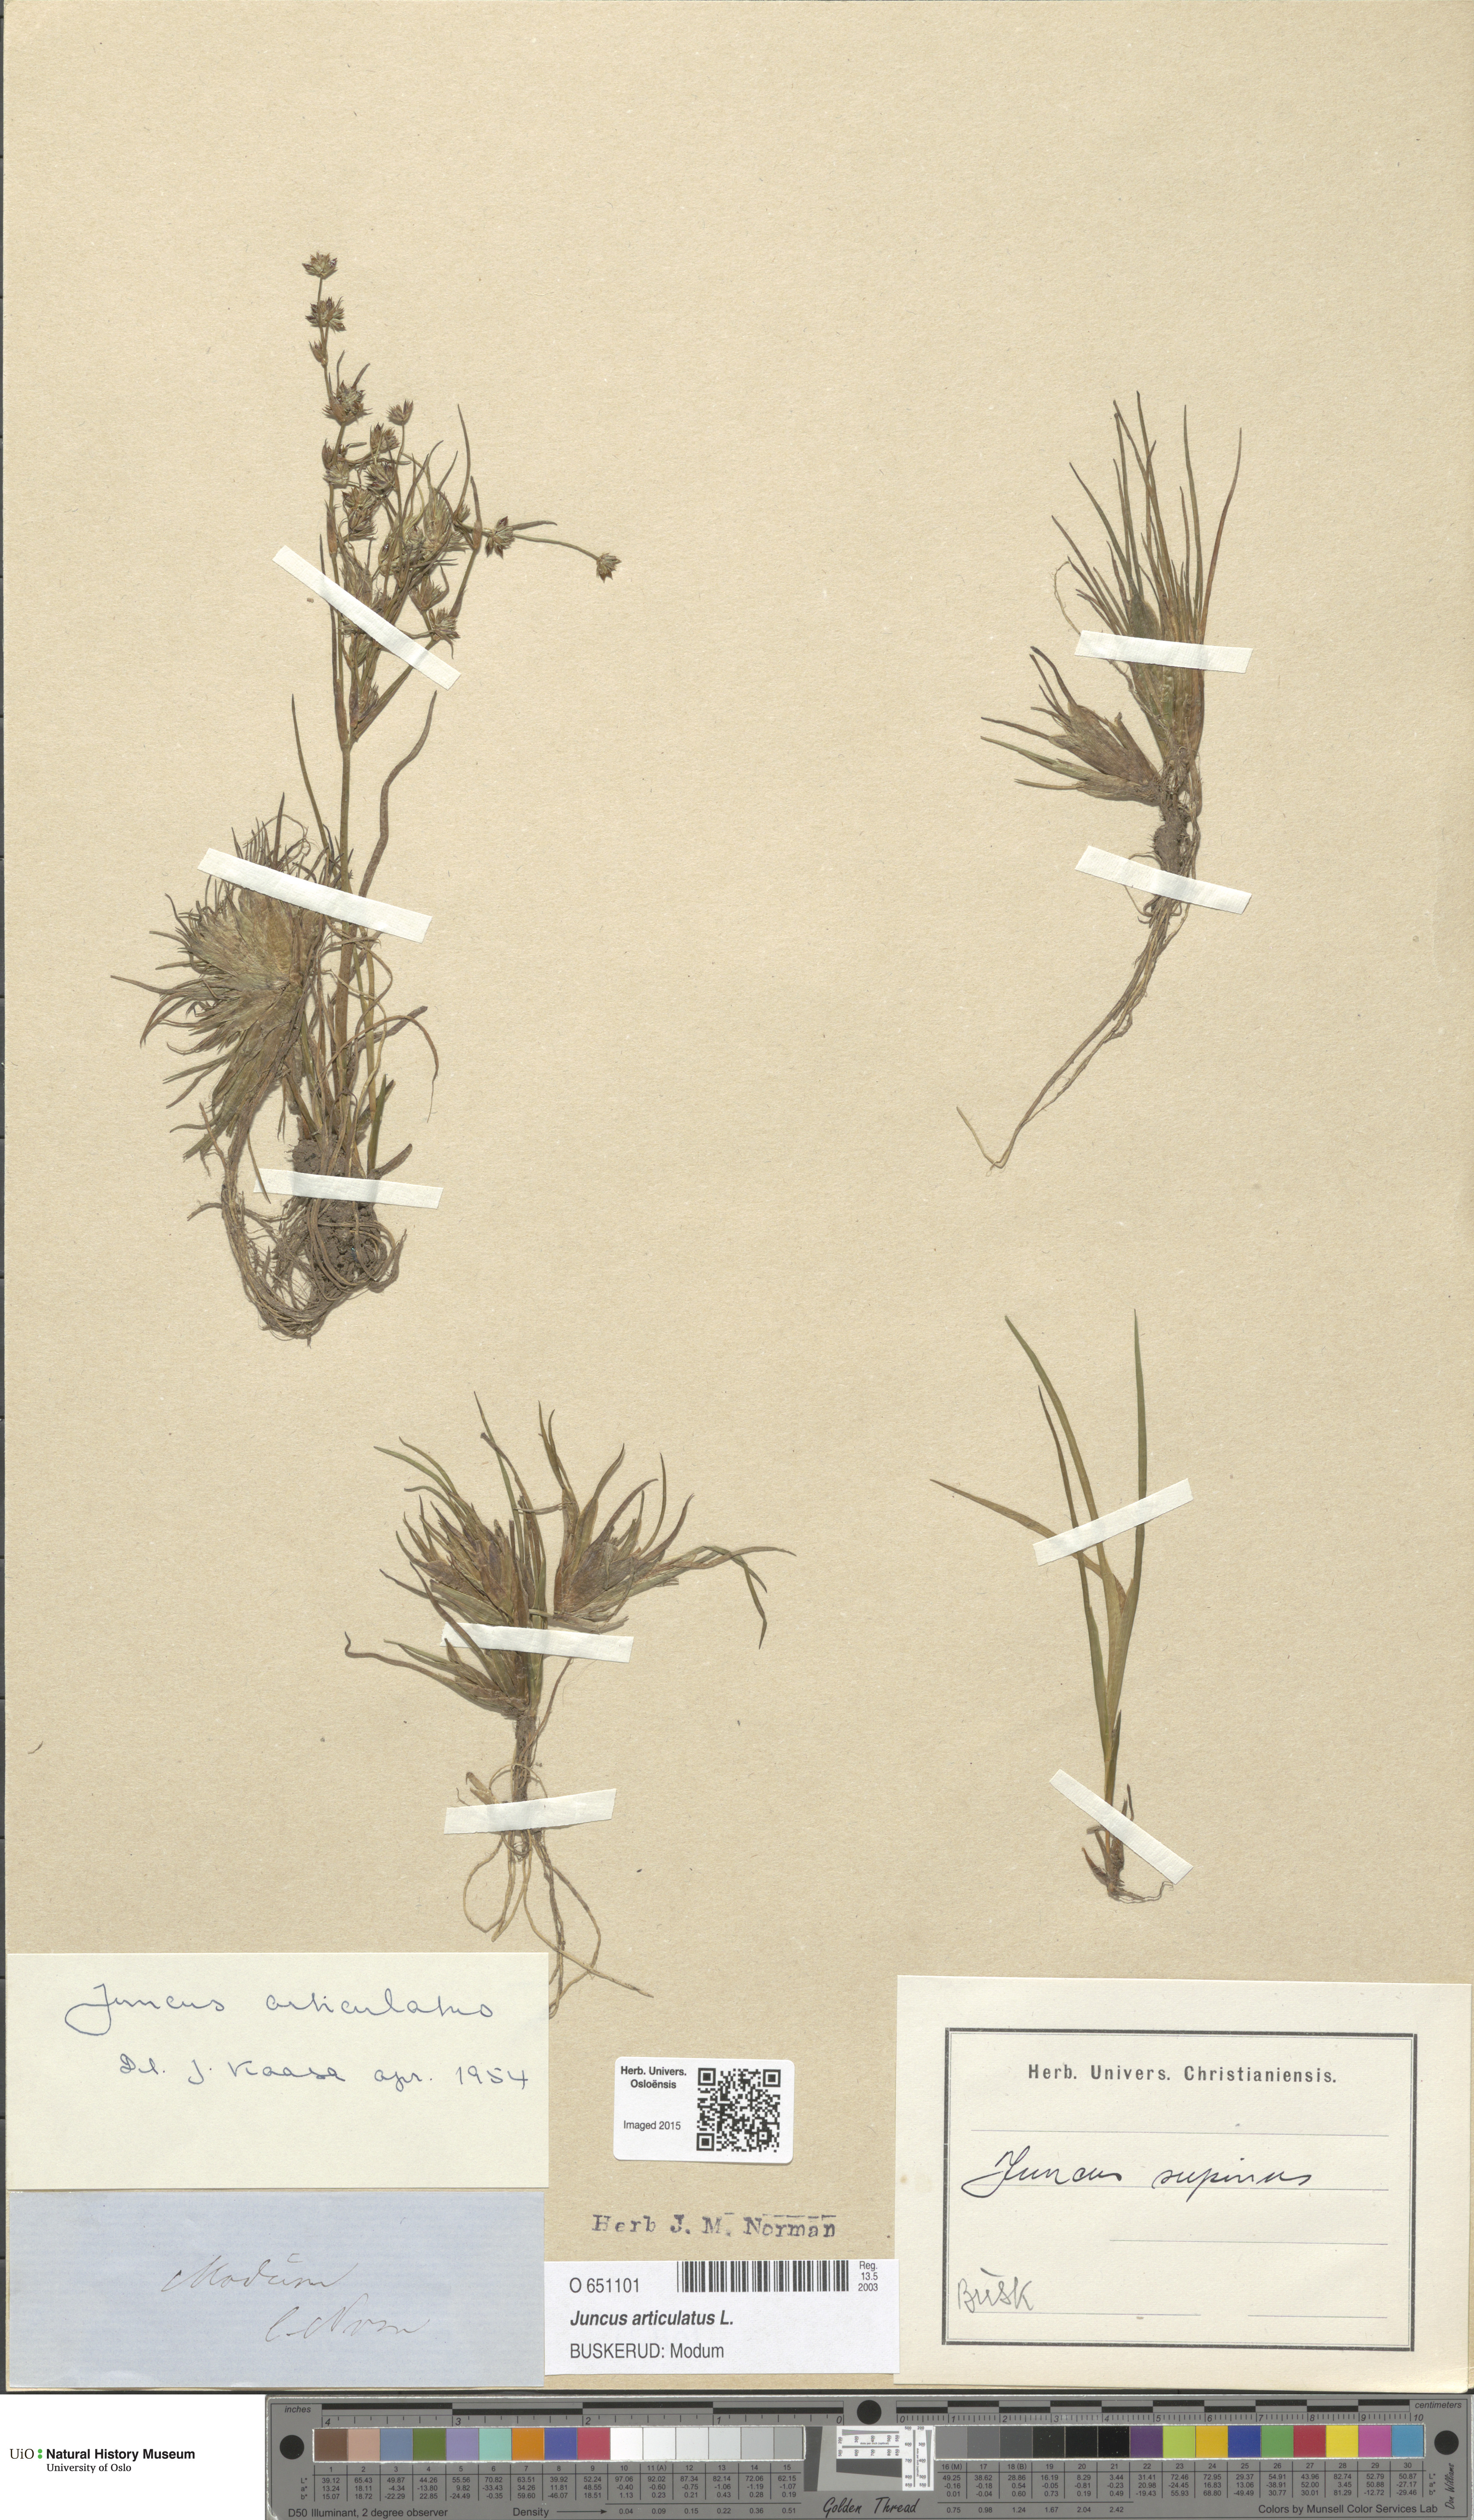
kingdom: Plantae
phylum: Tracheophyta
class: Liliopsida
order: Poales
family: Juncaceae
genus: Juncus
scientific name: Juncus articulatus
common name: Jointed rush
